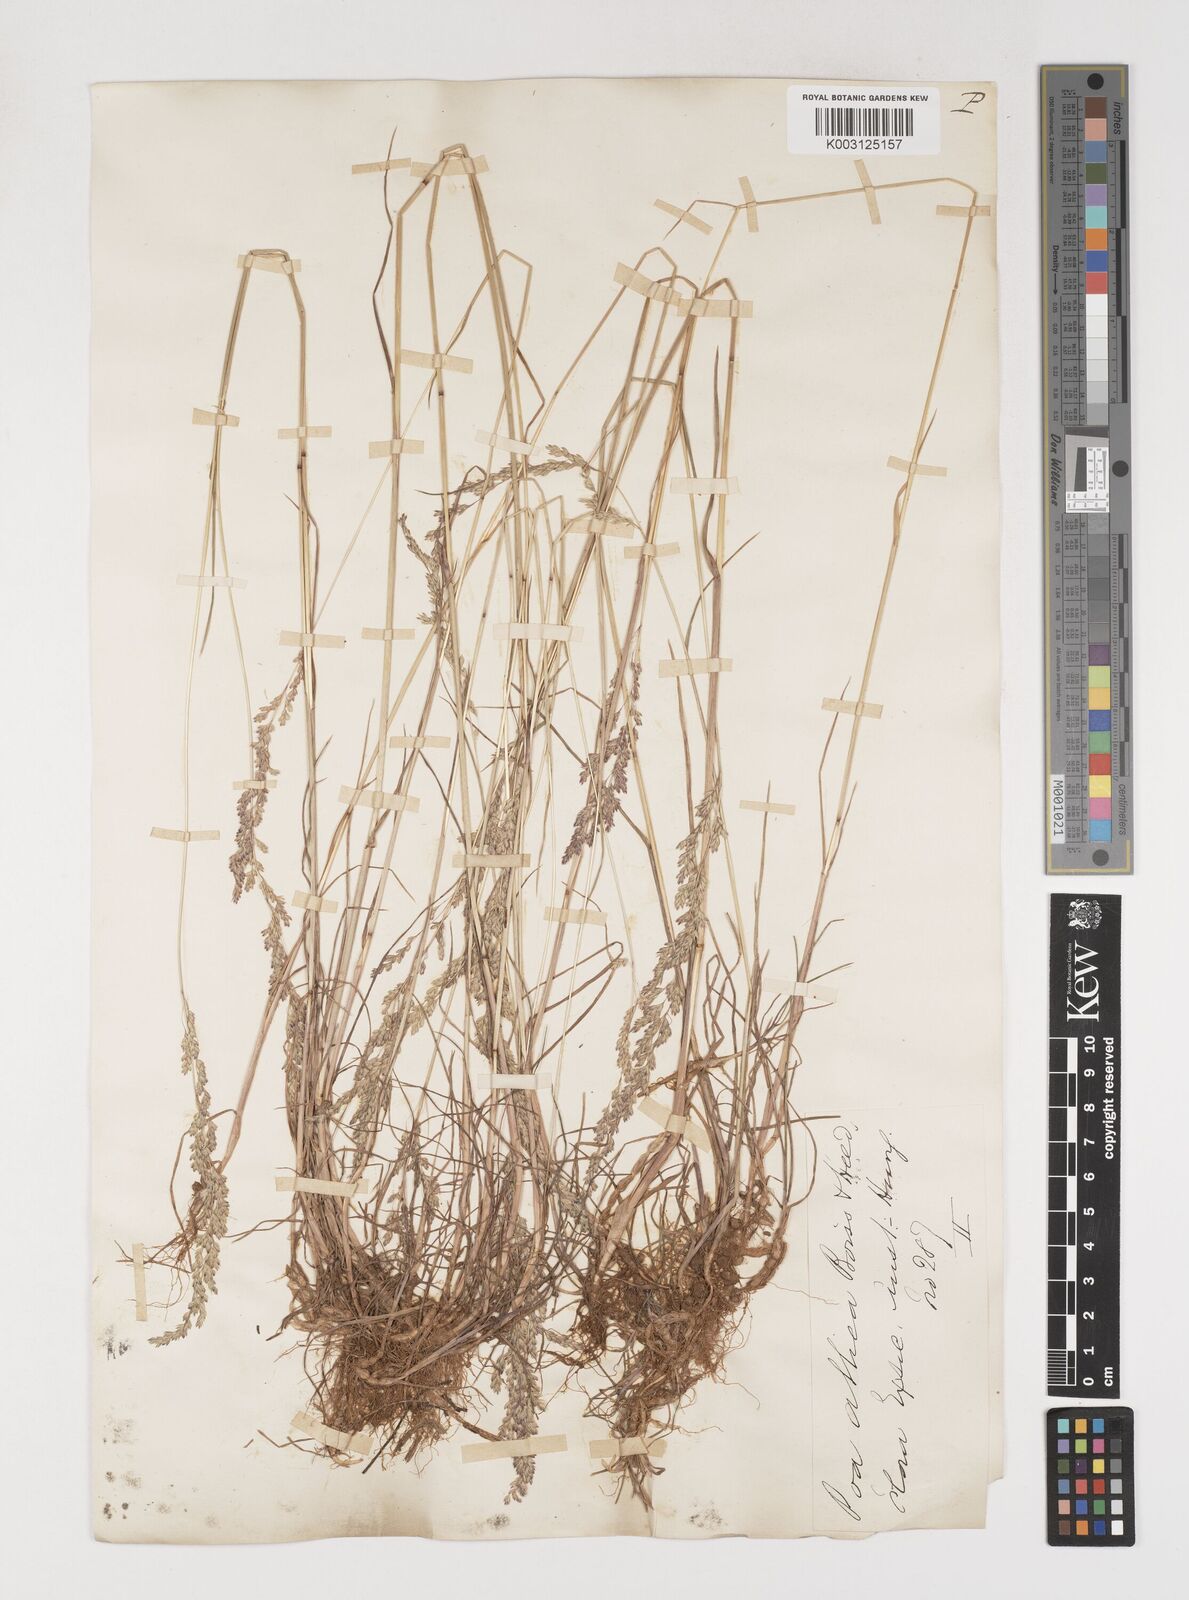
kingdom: Plantae
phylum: Tracheophyta
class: Liliopsida
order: Poales
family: Poaceae
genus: Poa
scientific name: Poa trivialis
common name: Rough bluegrass
